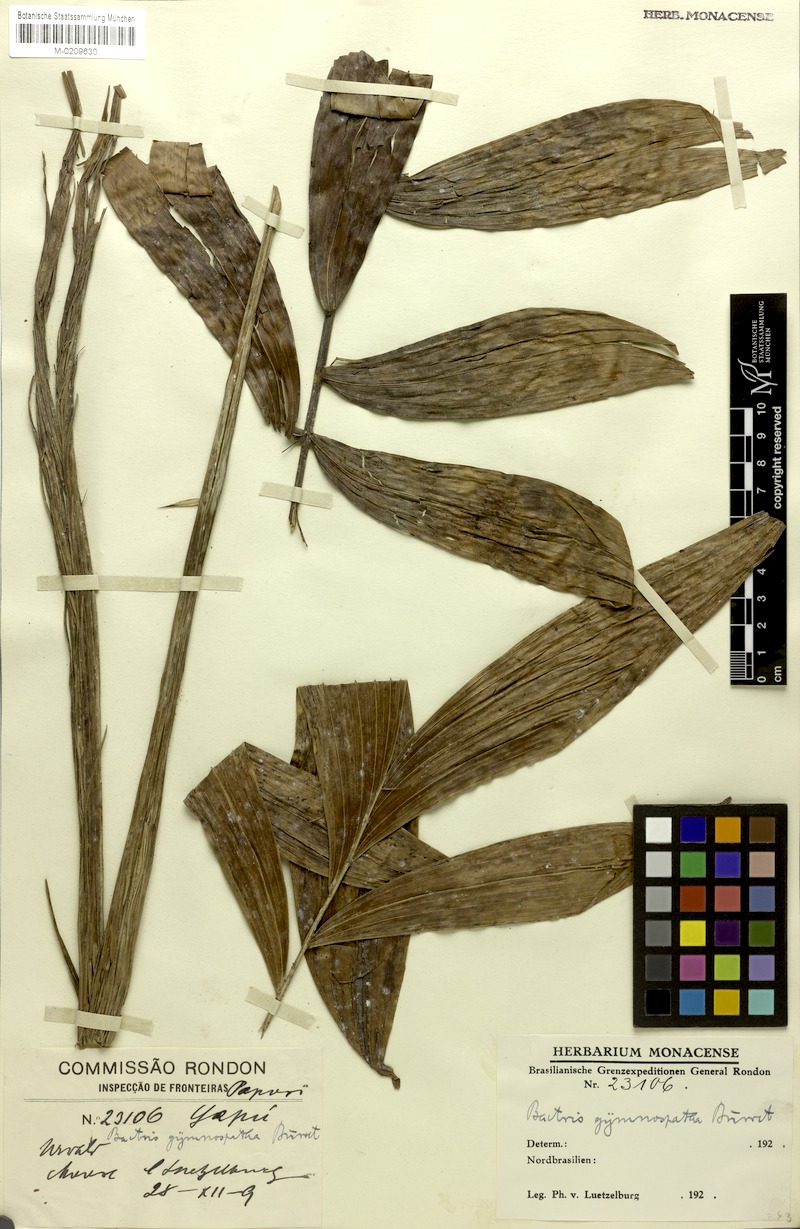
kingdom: Plantae
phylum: Tracheophyta
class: Liliopsida
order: Arecales
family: Arecaceae
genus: Bactris
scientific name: Bactris maraja
